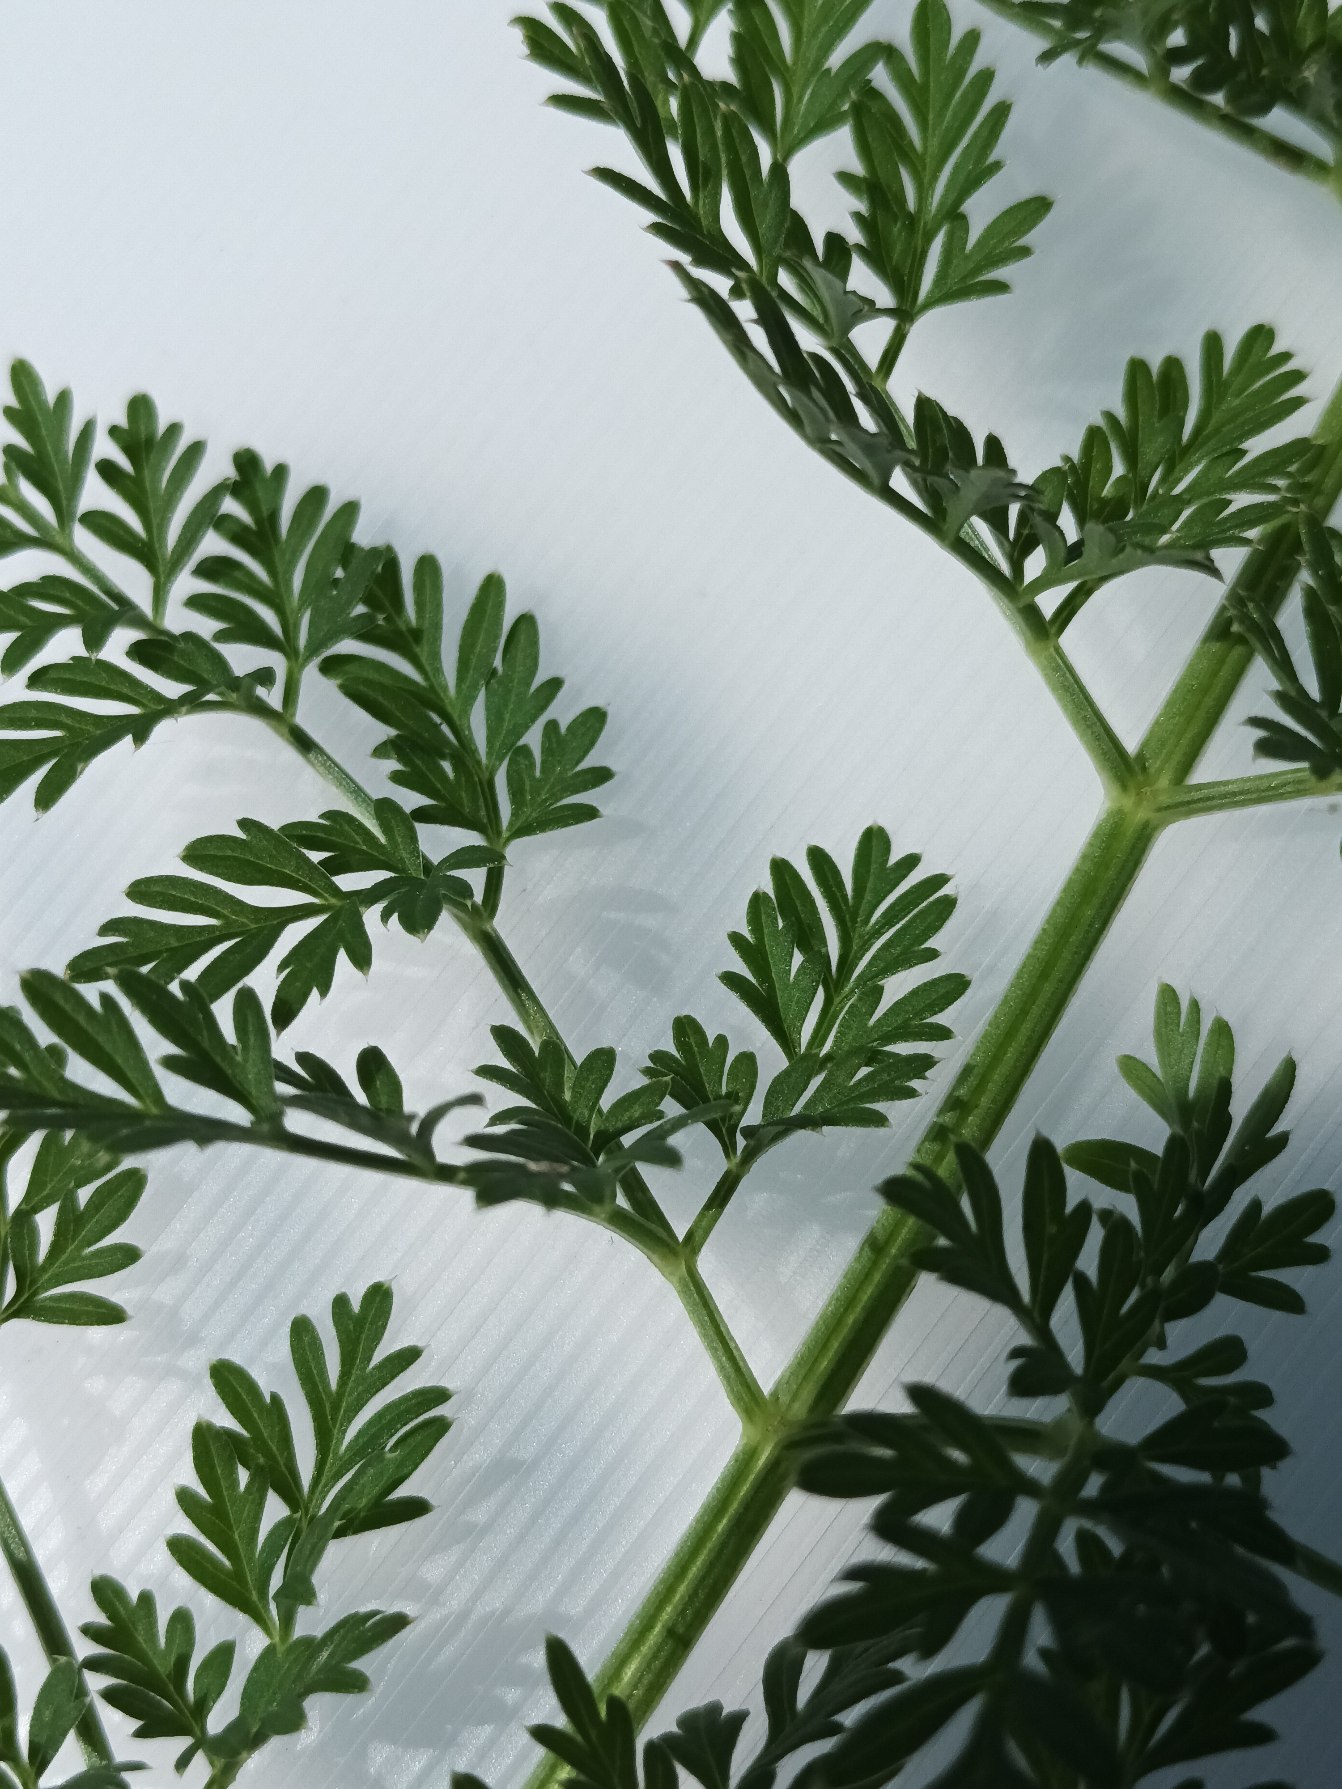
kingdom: Plantae
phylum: Tracheophyta
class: Magnoliopsida
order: Apiales
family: Apiaceae
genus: Selinum
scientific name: Selinum carvifolia
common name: Seline
